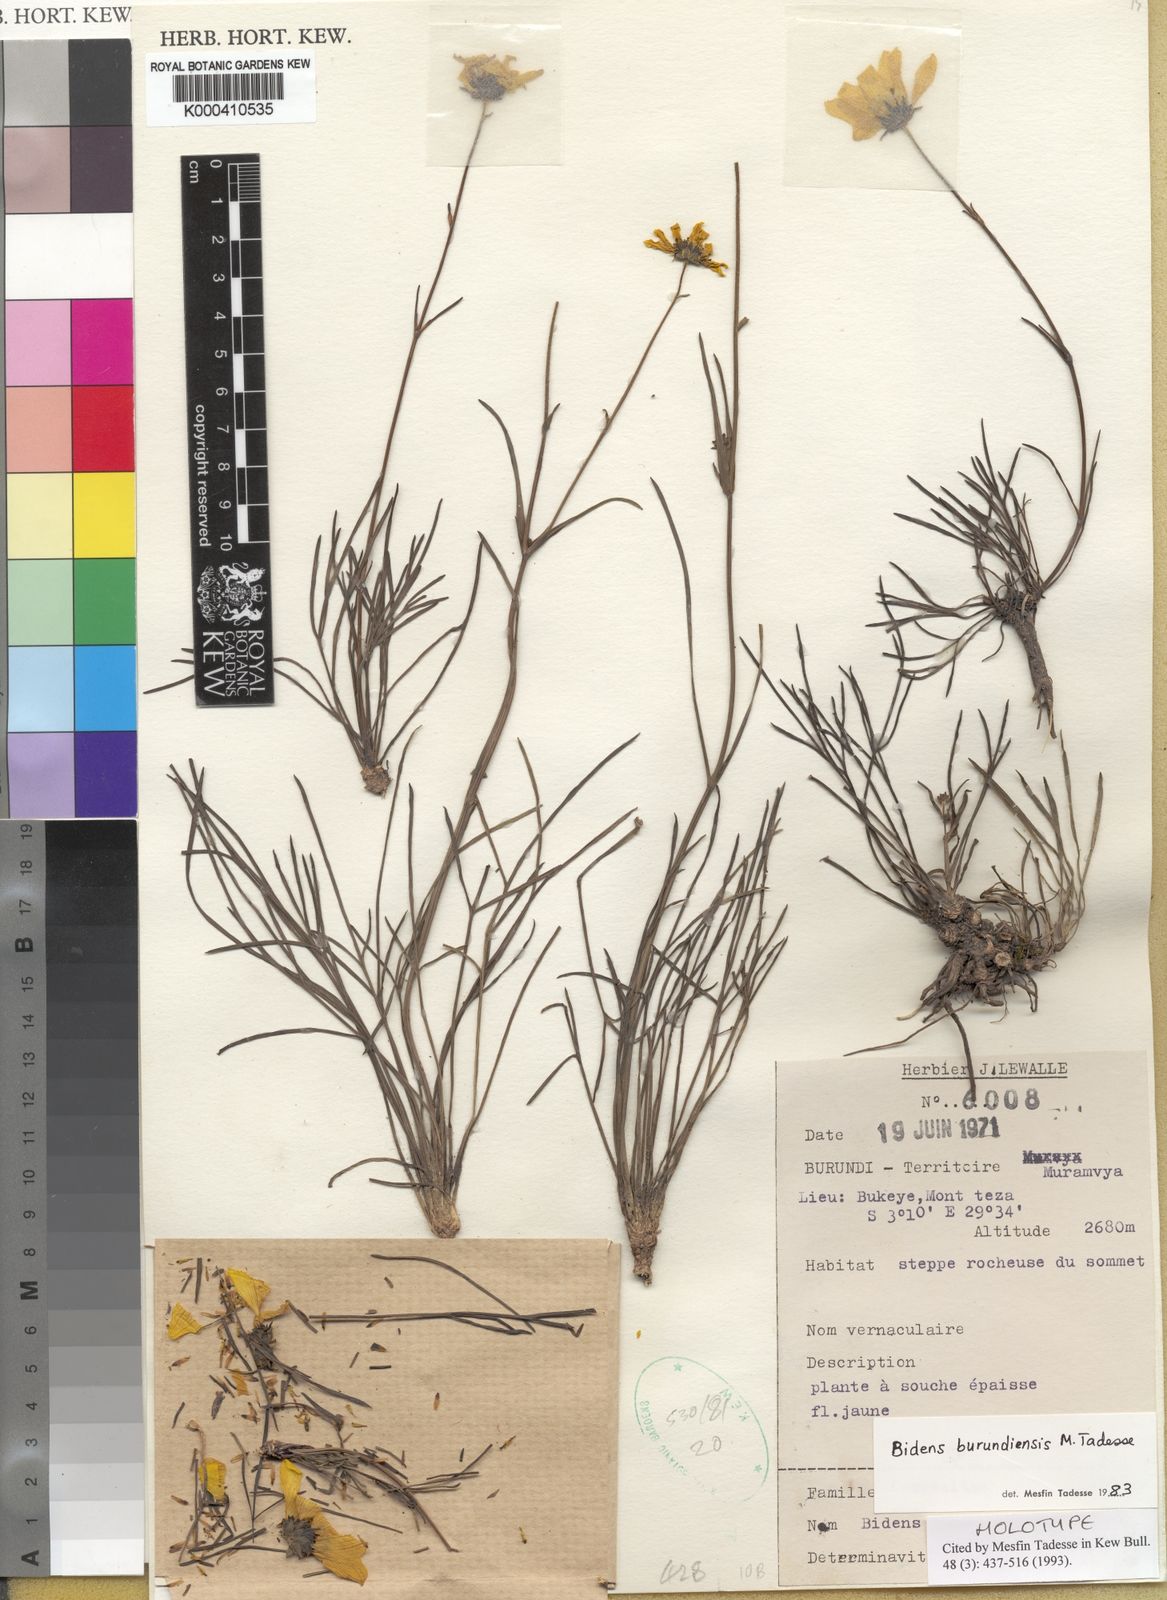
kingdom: Plantae
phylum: Tracheophyta
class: Magnoliopsida
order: Asterales
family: Asteraceae
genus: Bidens
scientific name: Bidens
